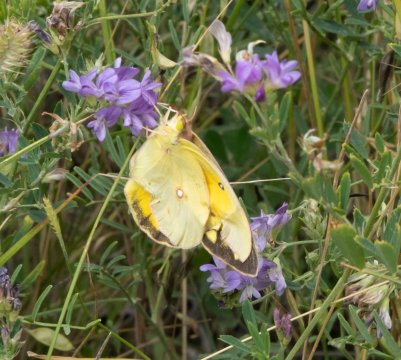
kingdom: Animalia
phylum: Arthropoda
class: Insecta
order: Lepidoptera
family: Pieridae
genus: Colias
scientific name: Colias eurytheme
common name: Orange Sulphur
